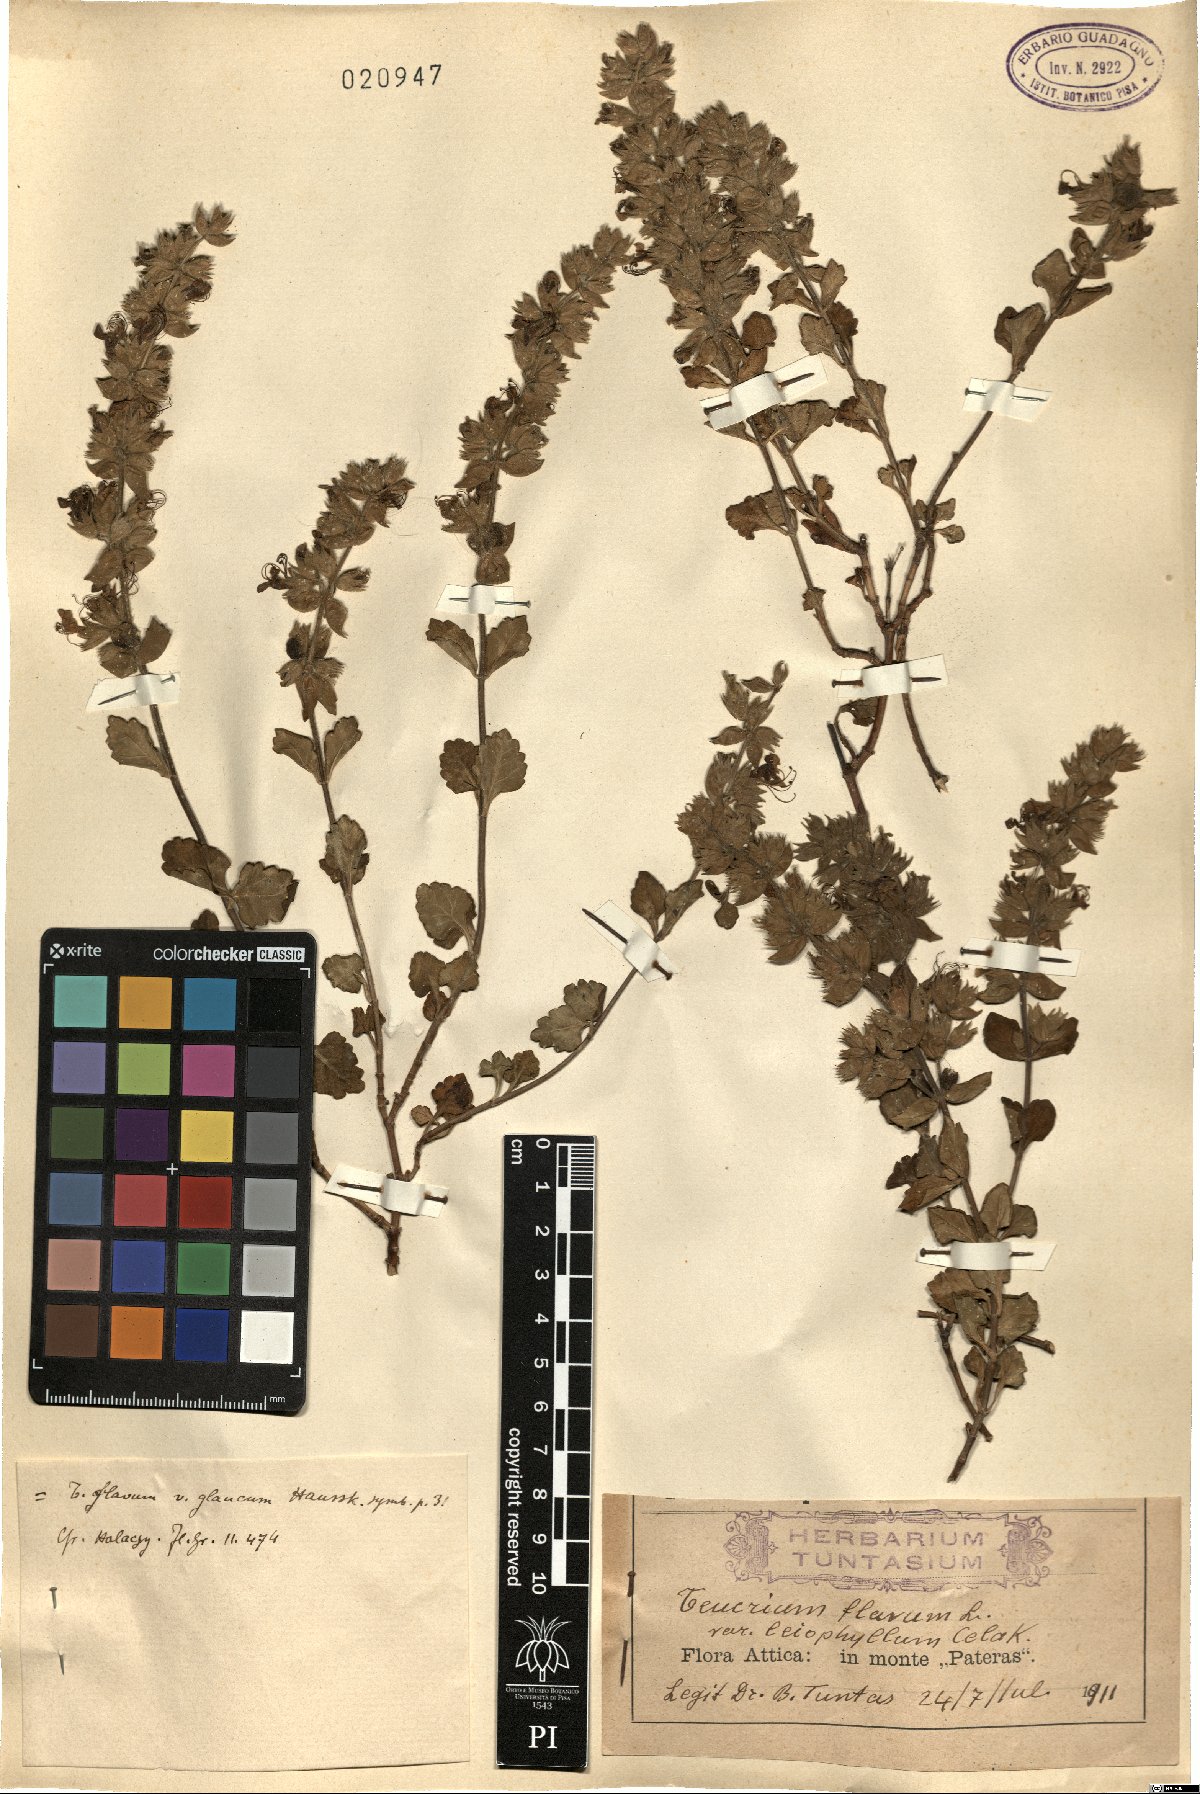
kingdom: Plantae
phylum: Tracheophyta
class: Magnoliopsida
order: Lamiales
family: Lamiaceae
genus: Teucrium
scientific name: Teucrium flavum
